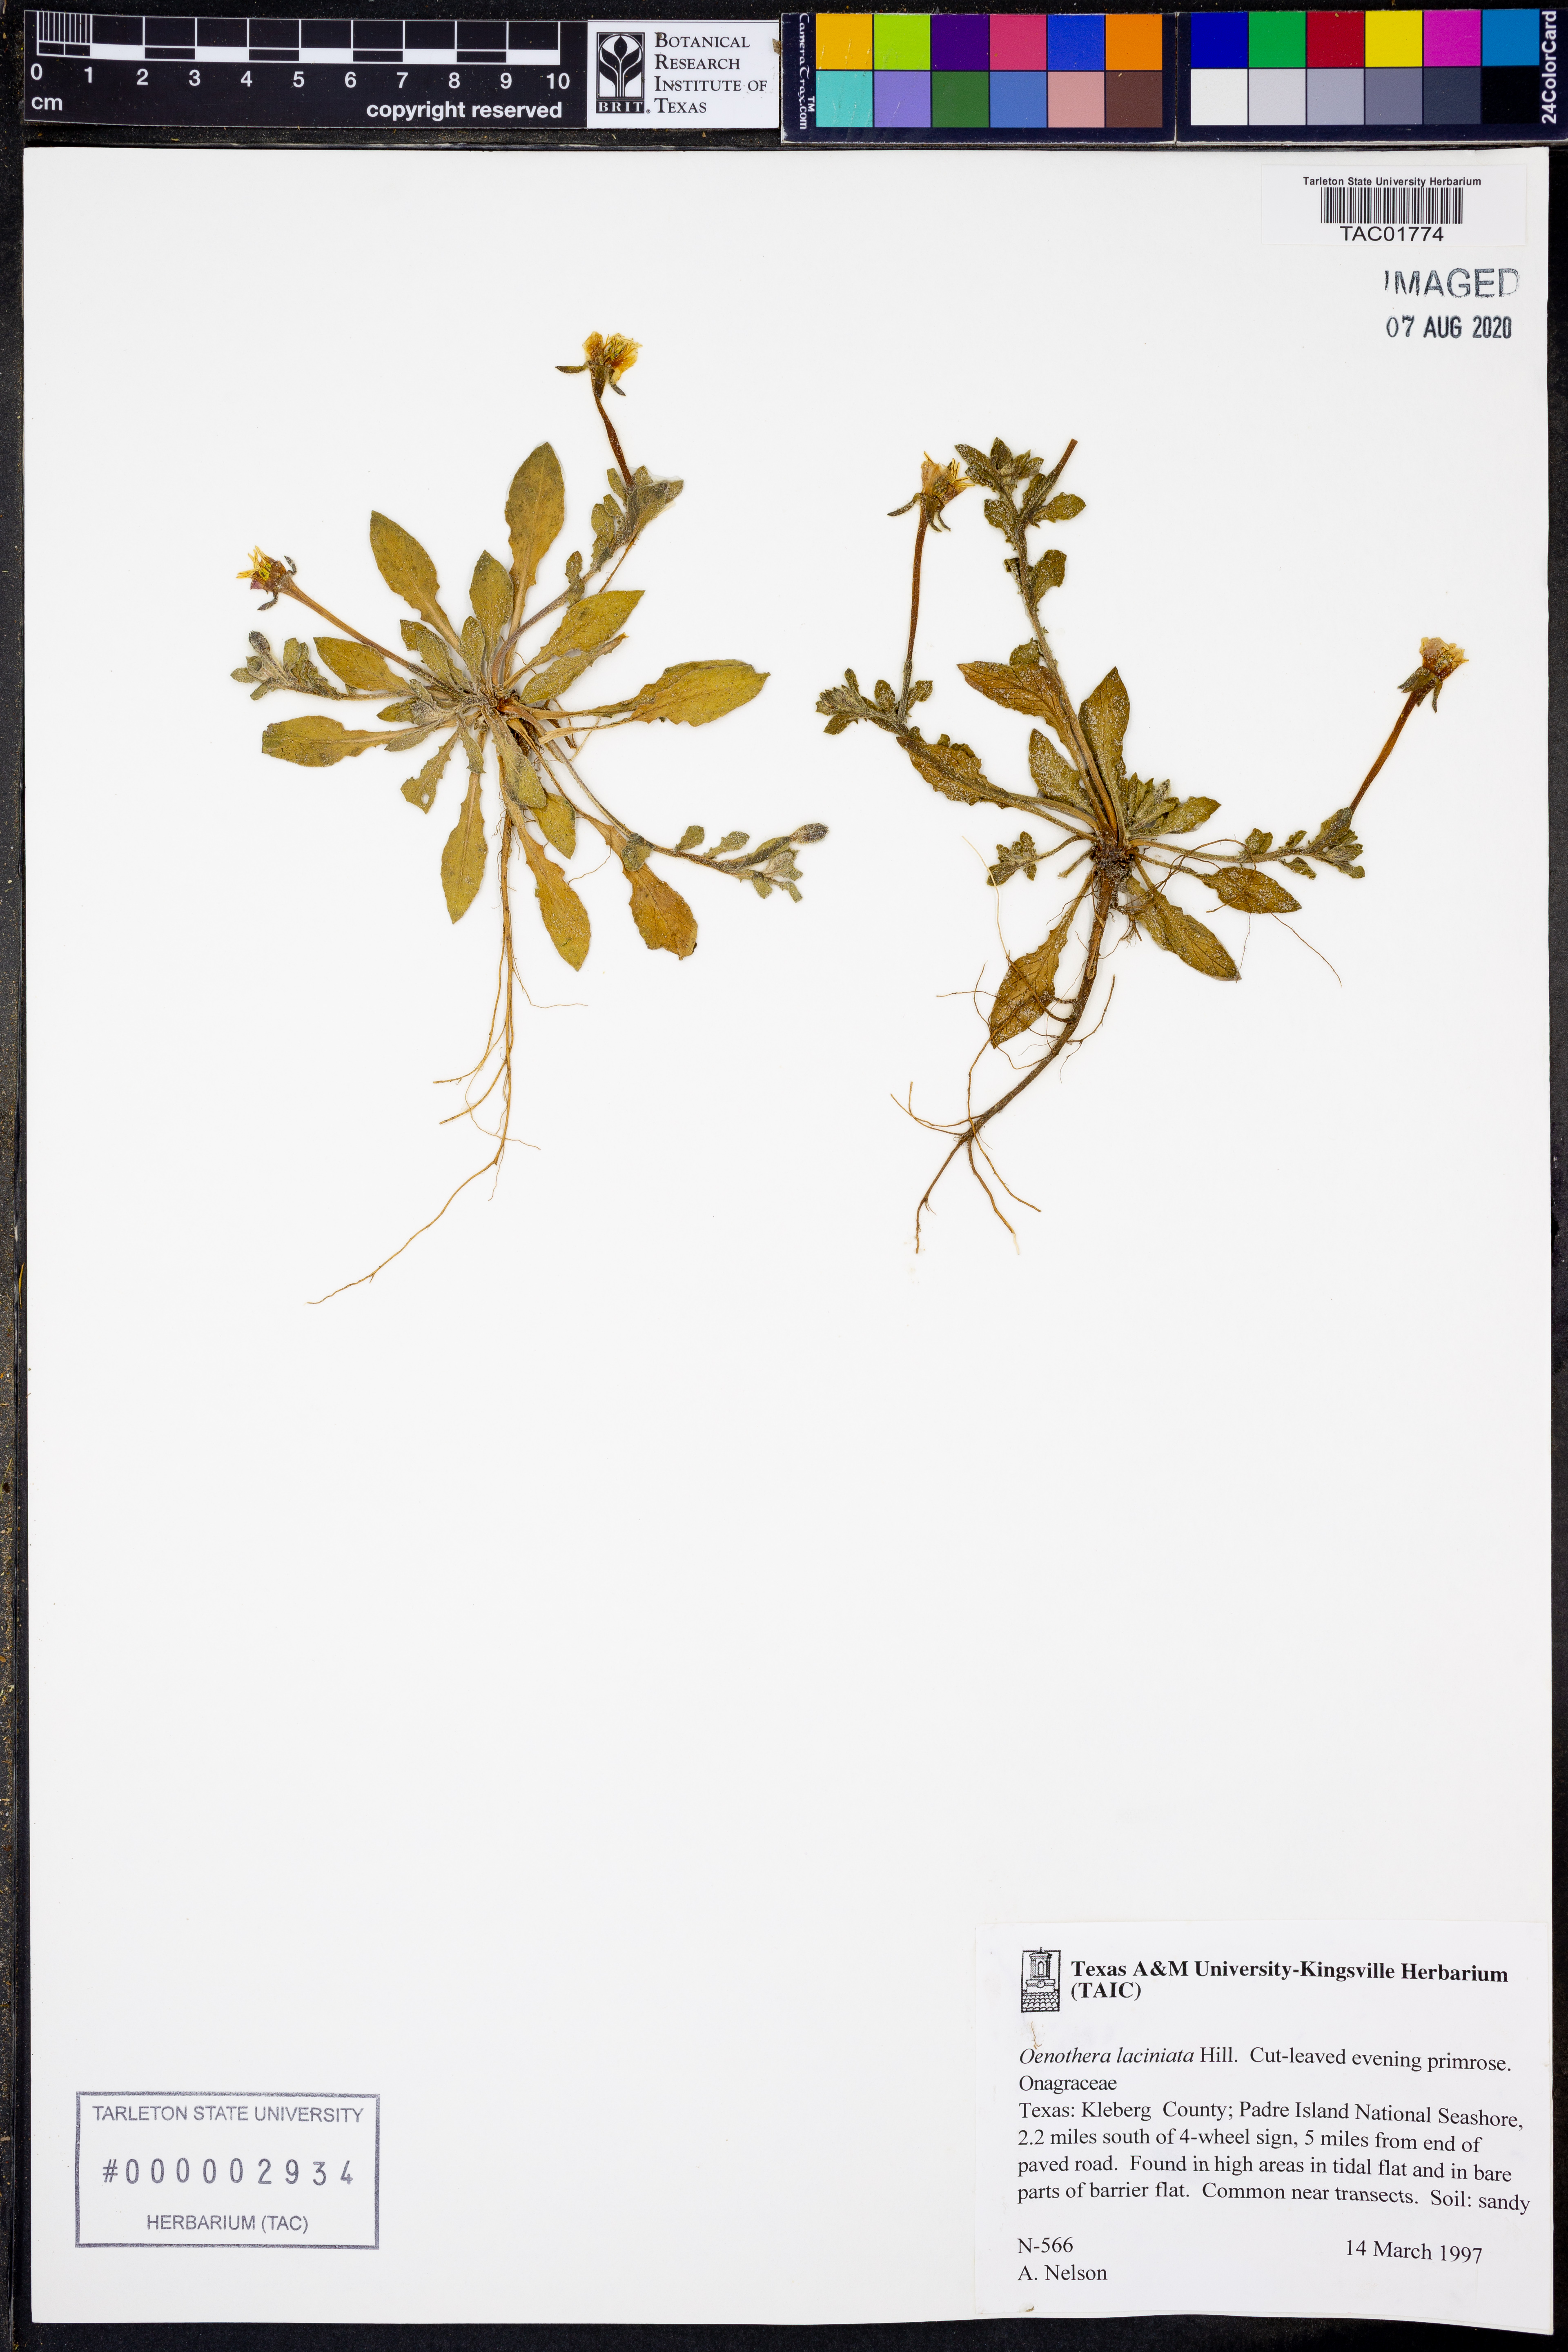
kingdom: Plantae
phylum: Tracheophyta
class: Magnoliopsida
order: Myrtales
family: Onagraceae
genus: Oenothera
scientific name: Oenothera laciniata
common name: Cut-leaved evening-primrose
